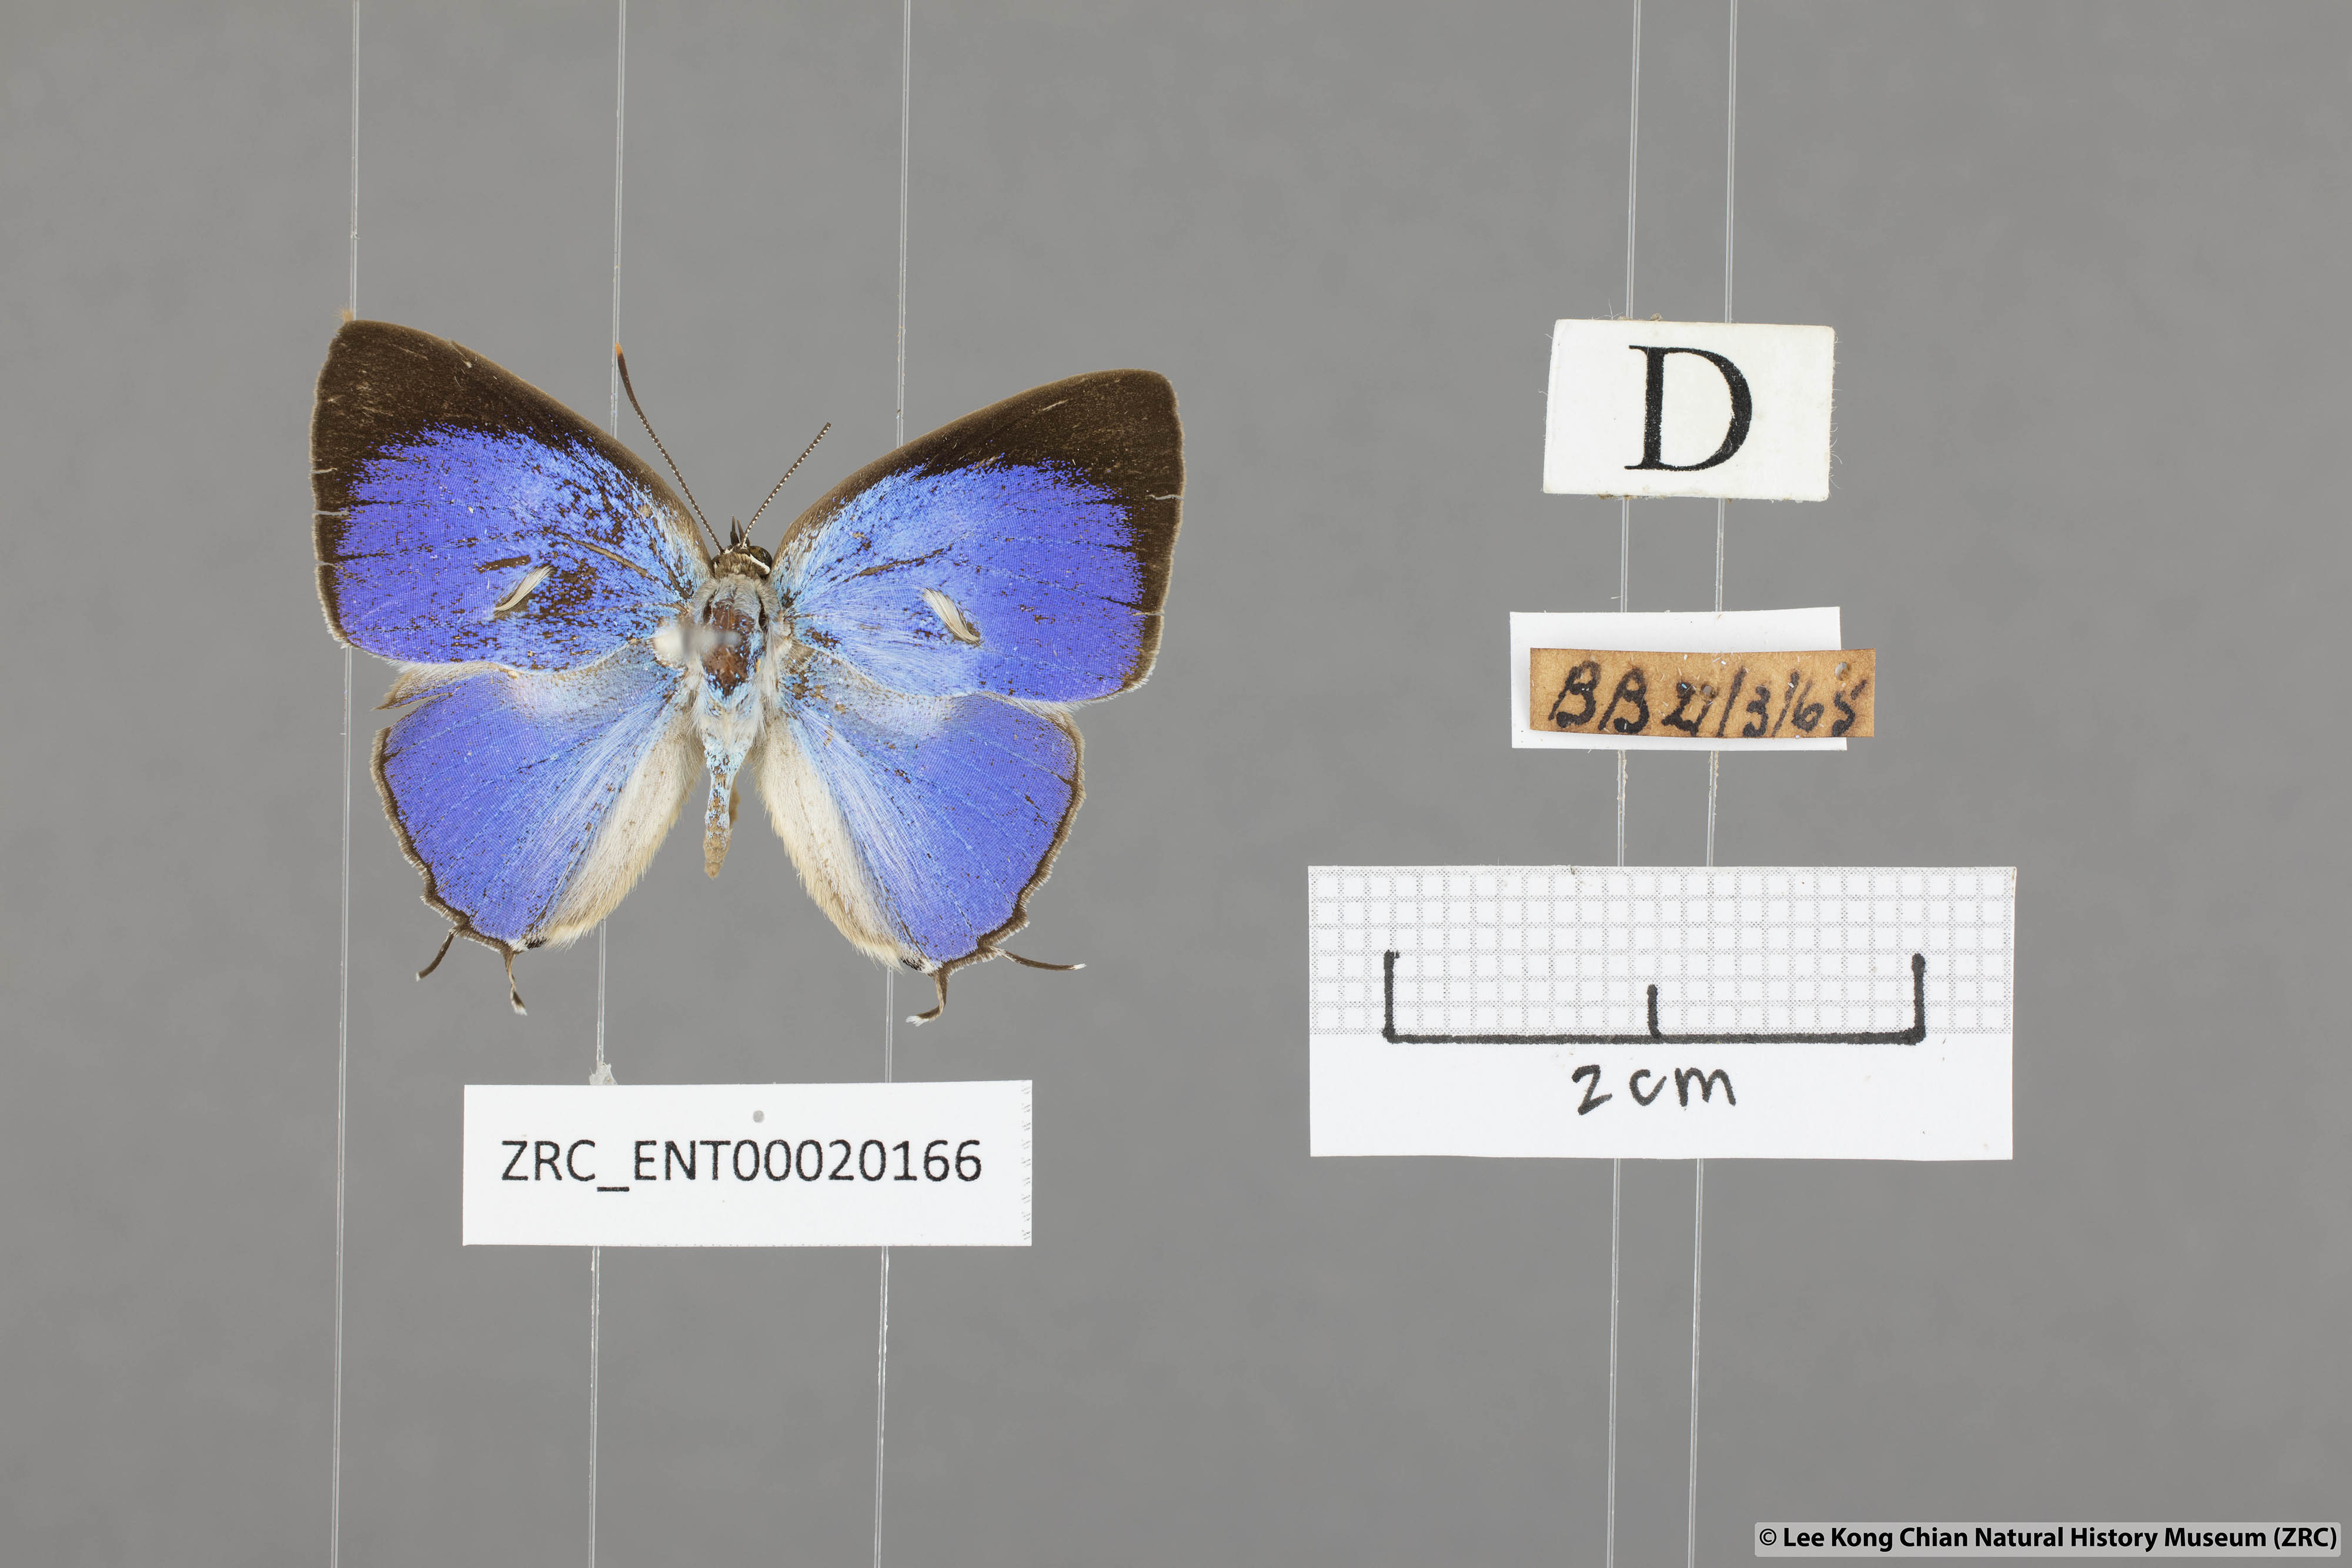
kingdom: Animalia
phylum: Arthropoda
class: Insecta
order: Lepidoptera
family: Lycaenidae
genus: Dacalana
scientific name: Dacalana vidura
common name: Medium-branded royal
